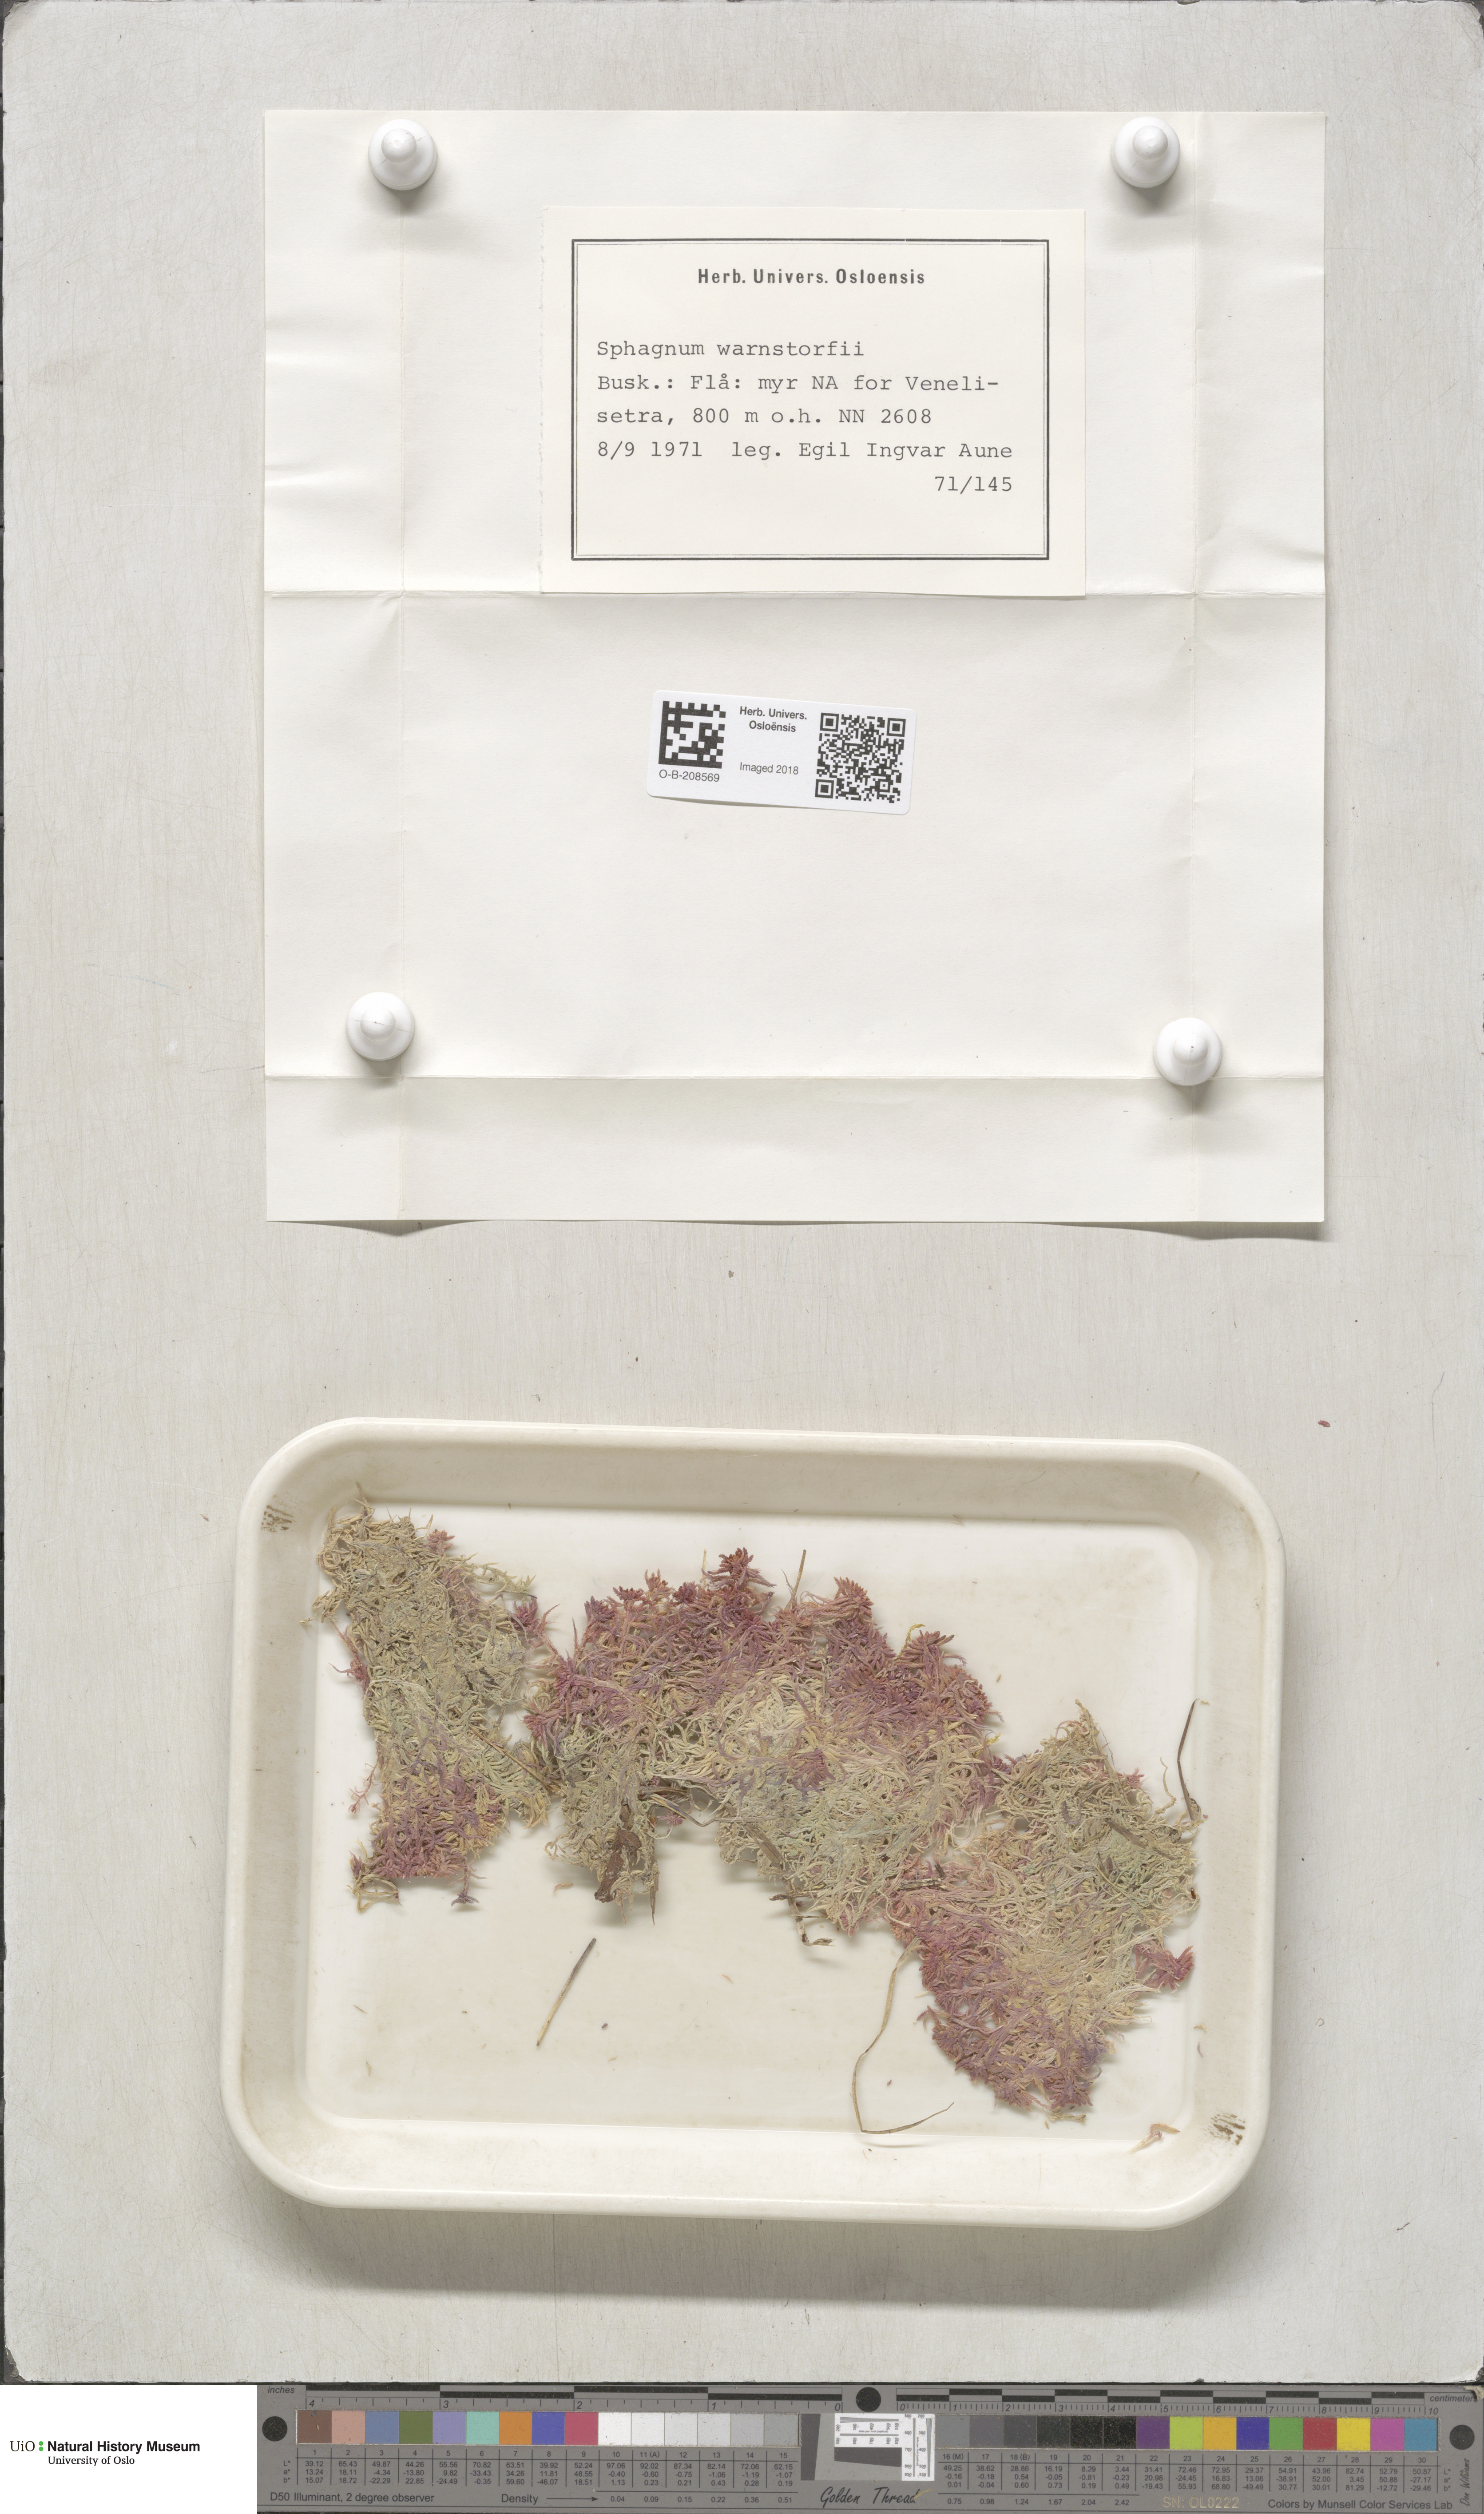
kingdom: Plantae
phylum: Bryophyta
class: Sphagnopsida
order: Sphagnales
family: Sphagnaceae
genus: Sphagnum
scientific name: Sphagnum warnstorfii
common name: Warnstorf's peat moss
